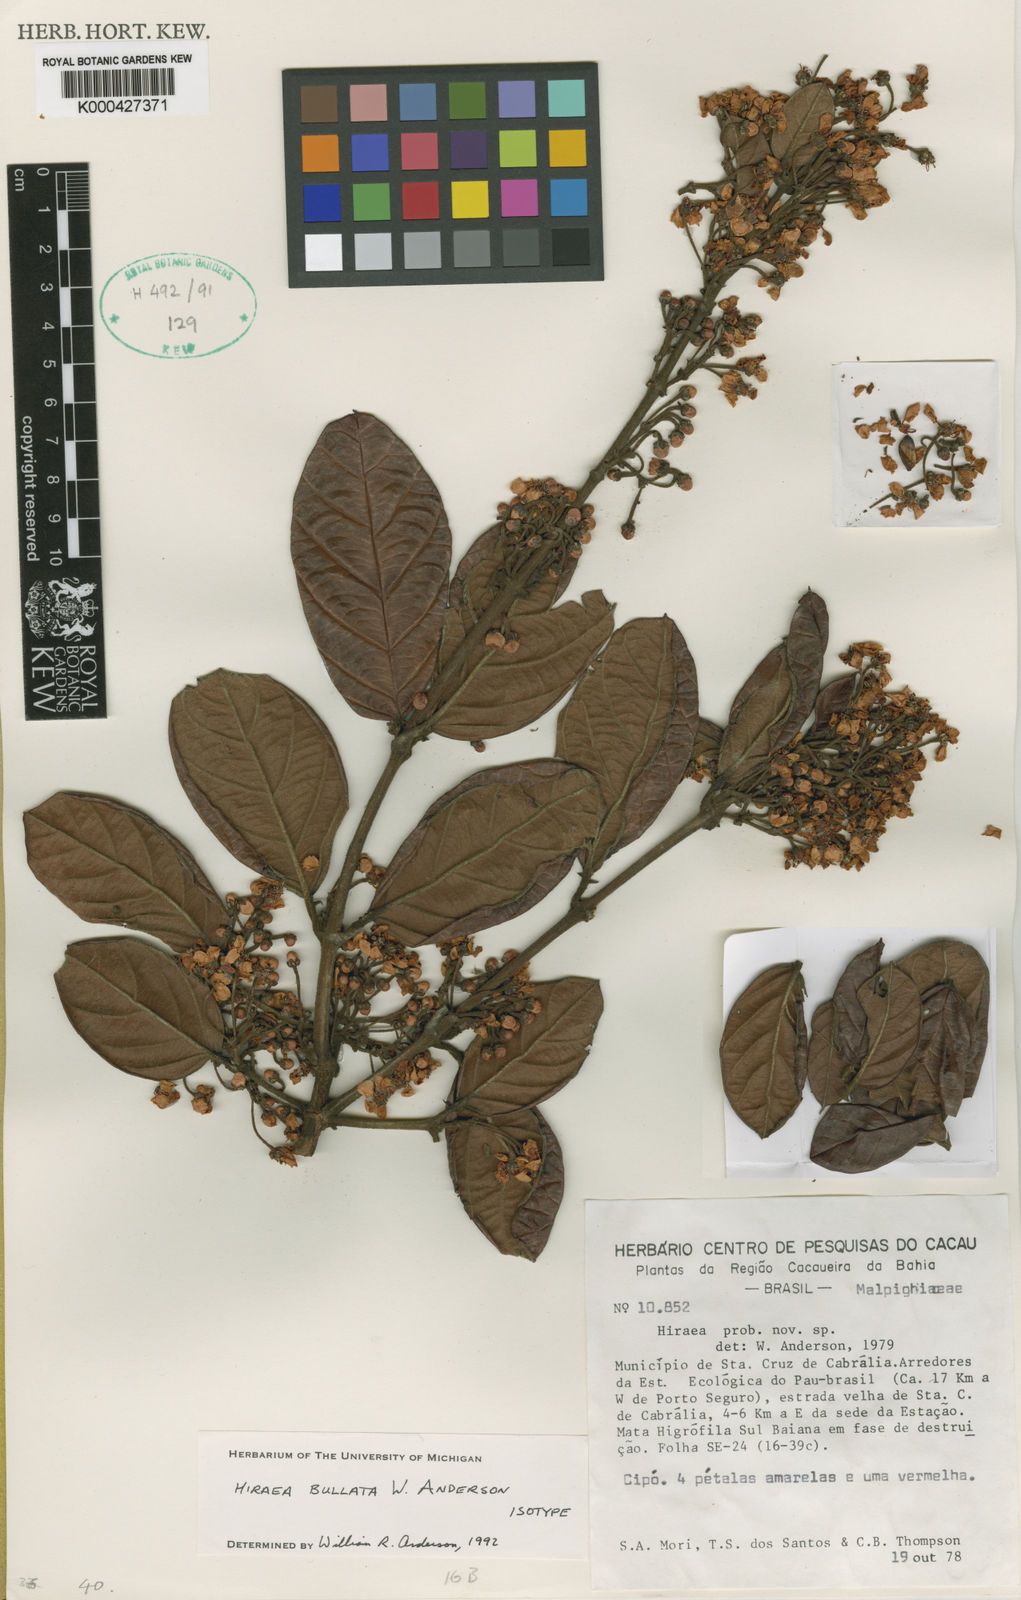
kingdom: Plantae
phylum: Tracheophyta
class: Magnoliopsida
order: Malpighiales
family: Malpighiaceae
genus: Hiraea
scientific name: Hiraea bullata
